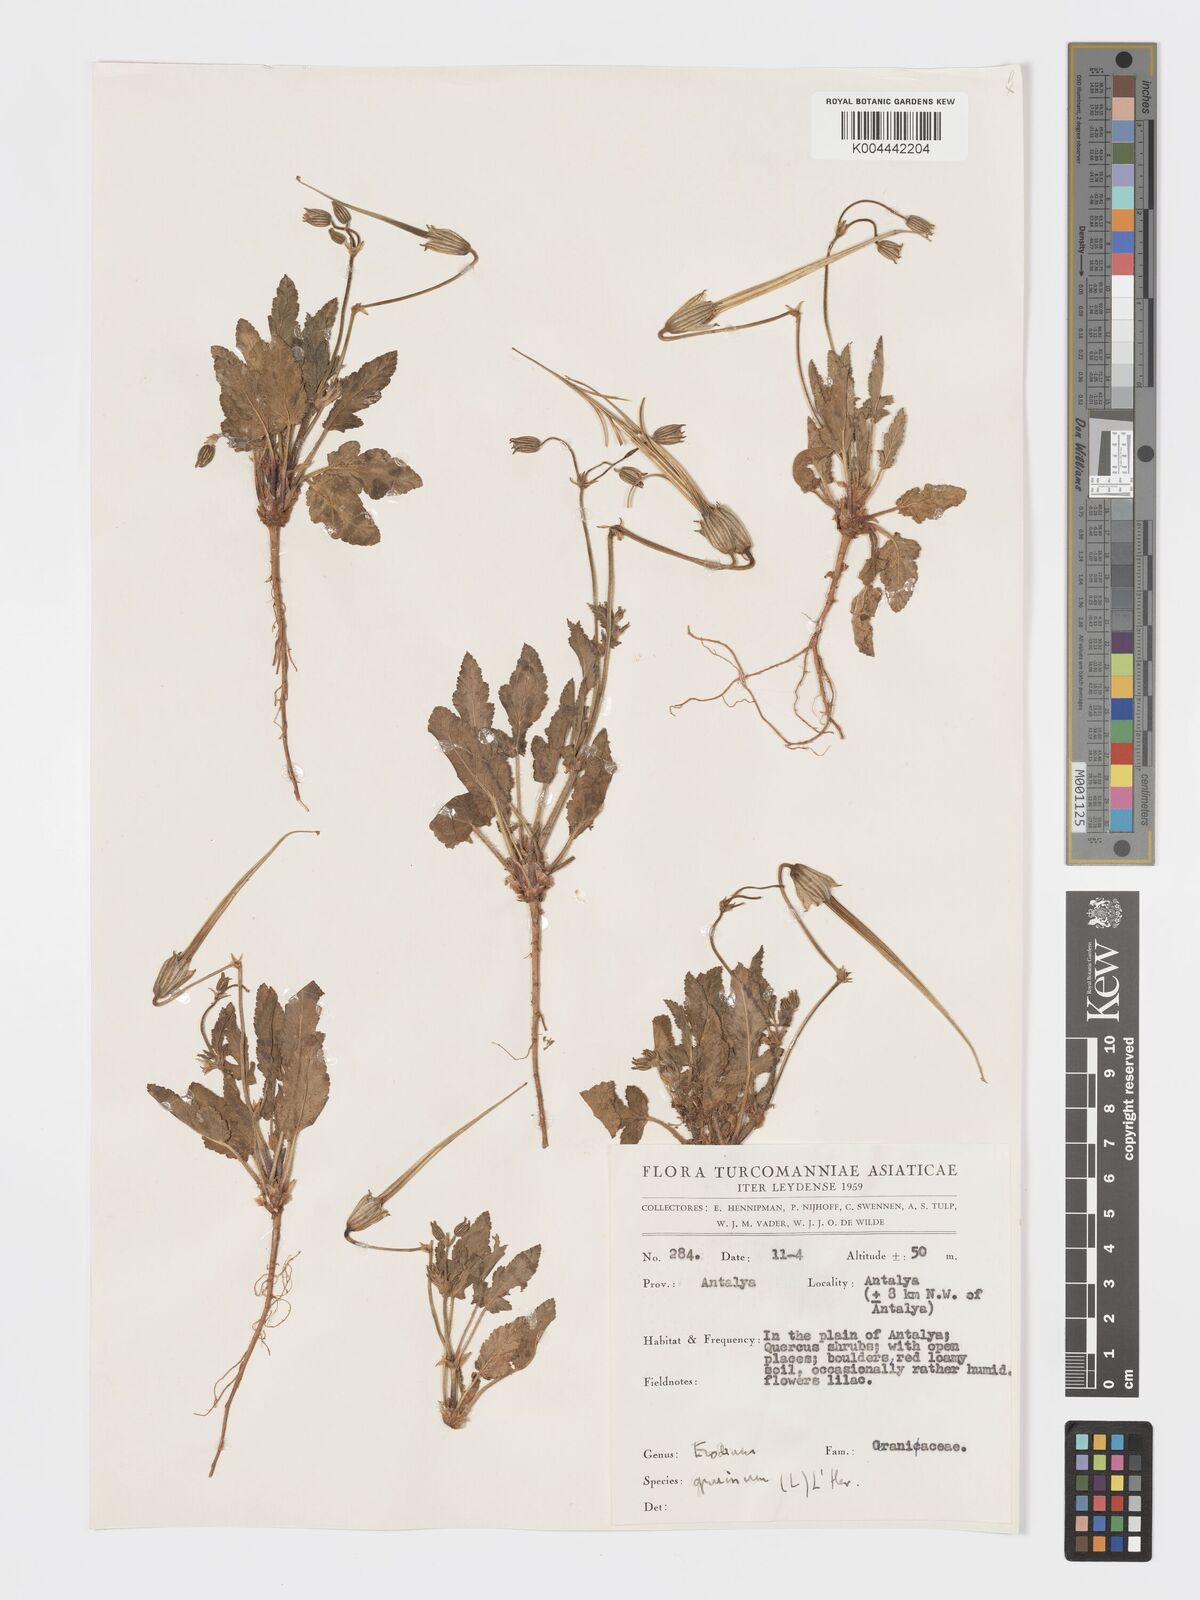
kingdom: Plantae
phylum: Tracheophyta
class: Magnoliopsida
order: Geraniales
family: Geraniaceae
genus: Erodium
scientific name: Erodium gruinum
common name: Iranian stork's bill
